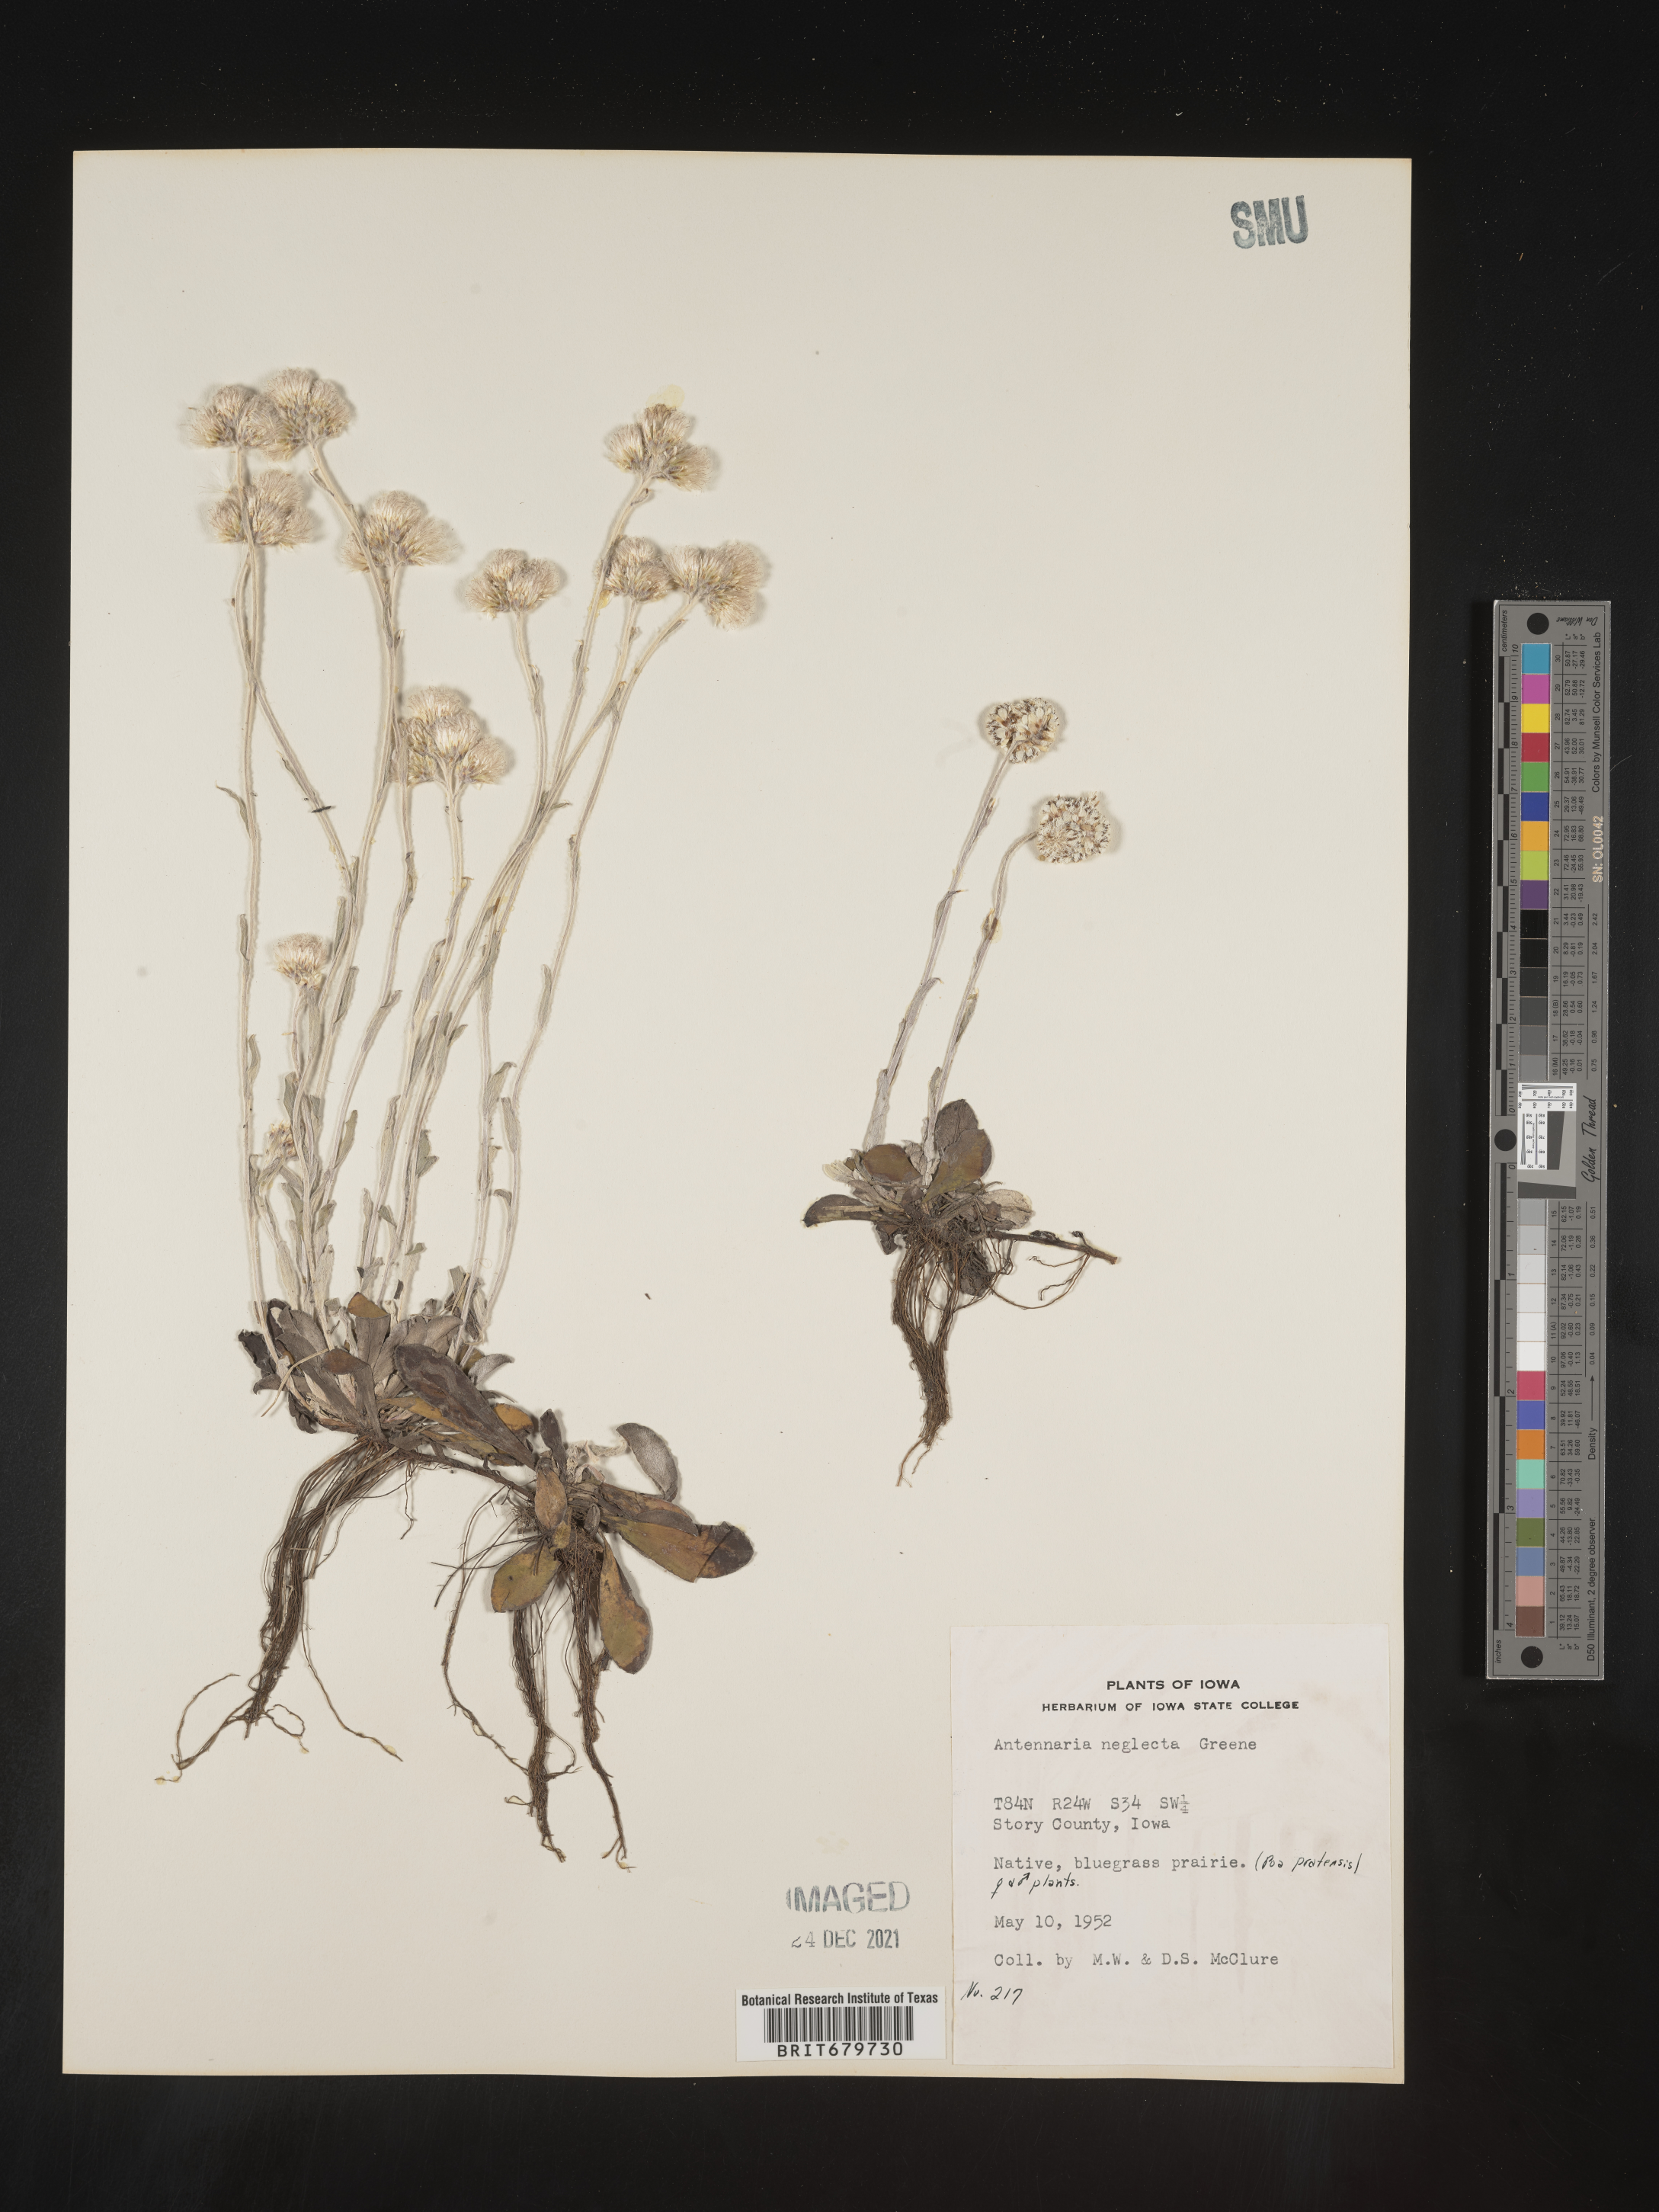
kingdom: Plantae
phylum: Tracheophyta
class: Magnoliopsida
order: Asterales
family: Asteraceae
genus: Antennaria
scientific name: Antennaria neglecta
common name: Field pussytoes
